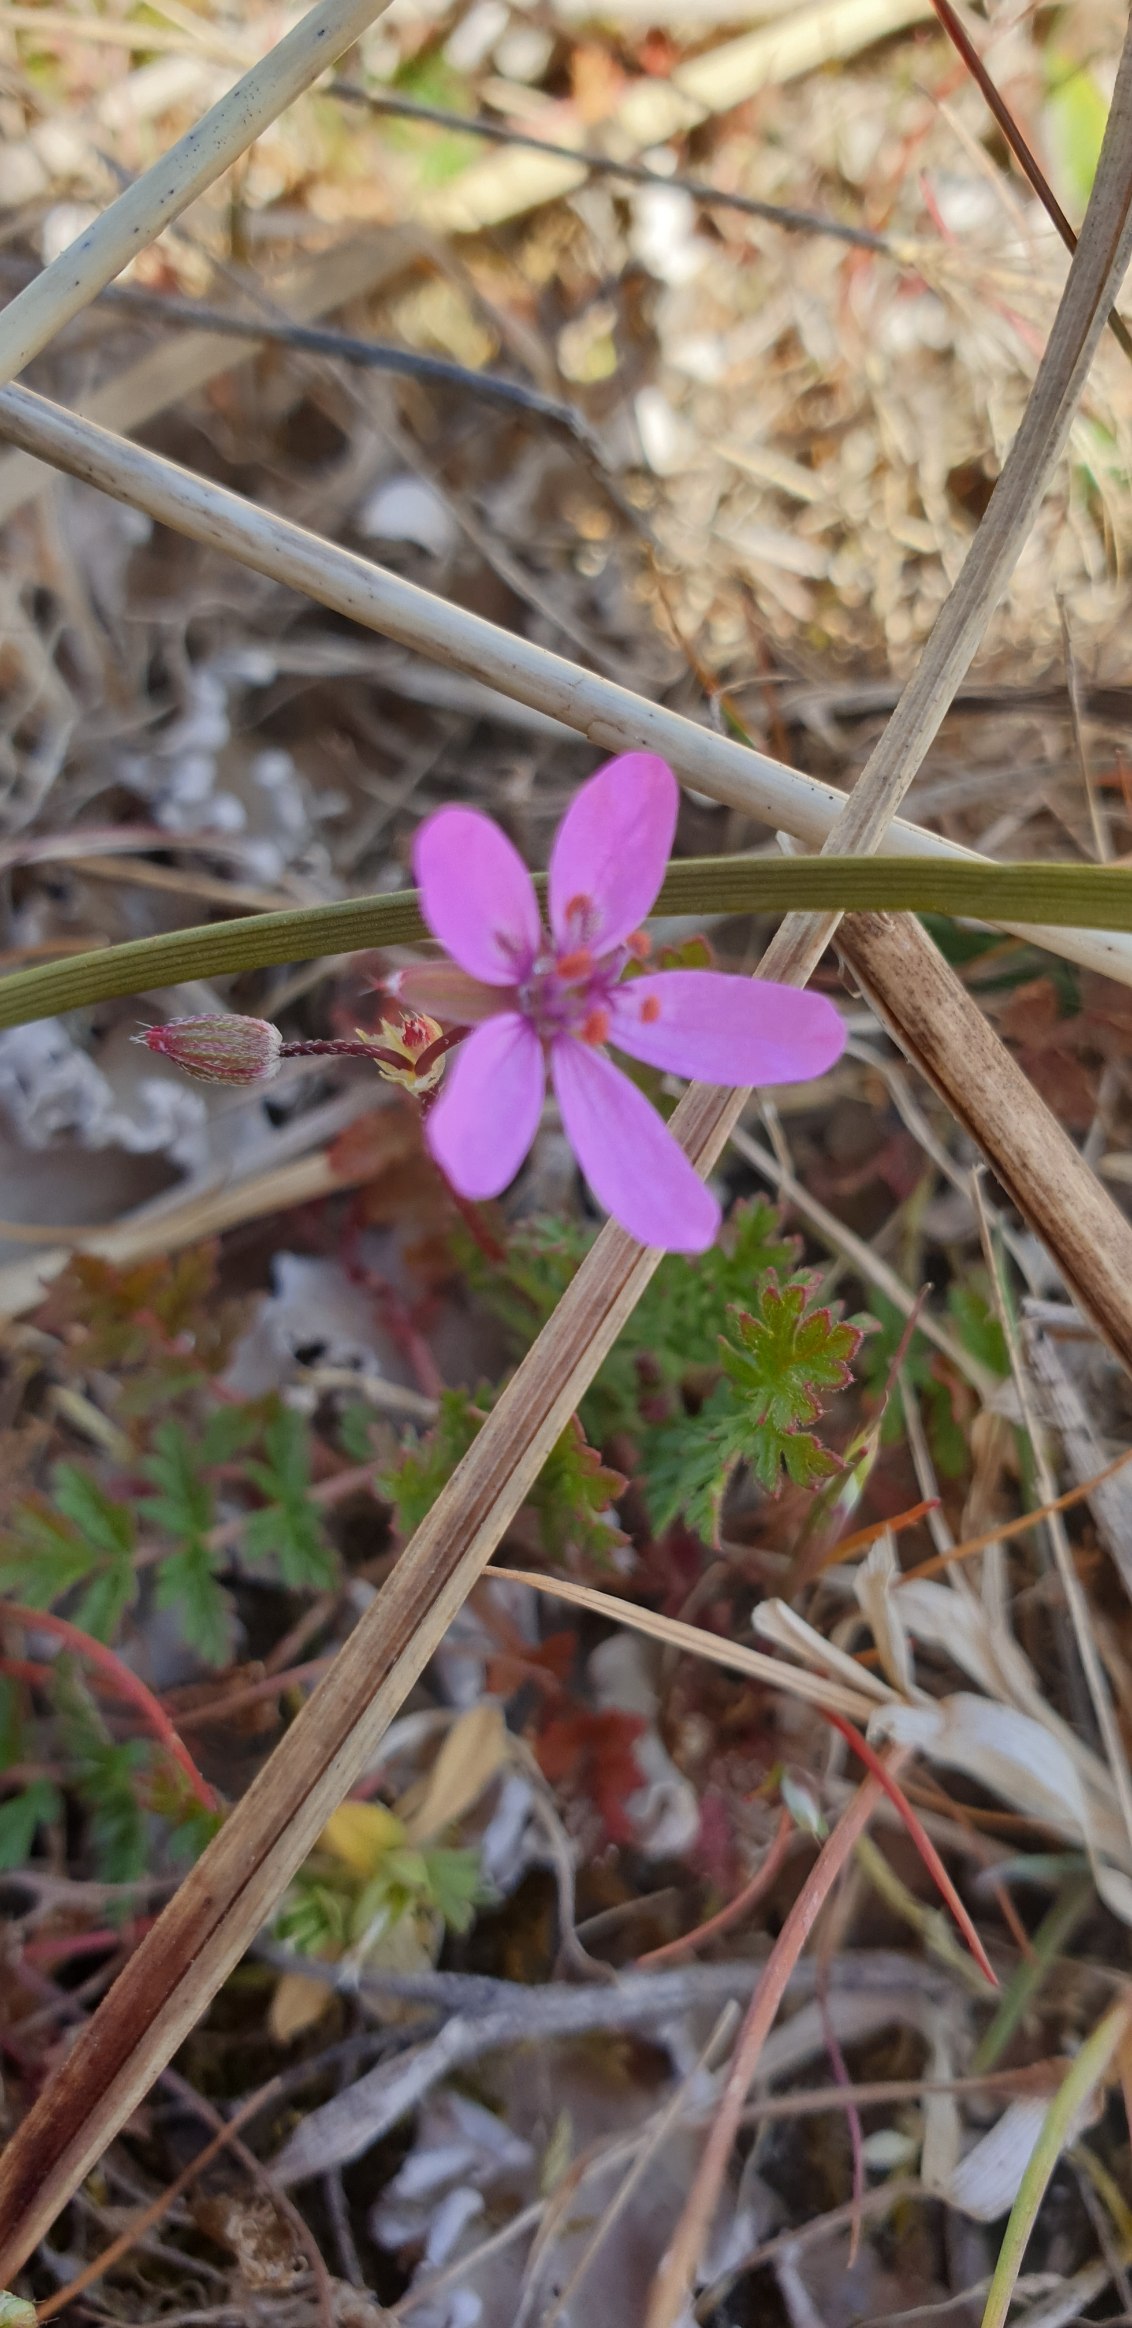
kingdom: Plantae
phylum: Tracheophyta
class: Magnoliopsida
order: Geraniales
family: Geraniaceae
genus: Erodium
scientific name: Erodium cicutarium
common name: Hejrenæb
